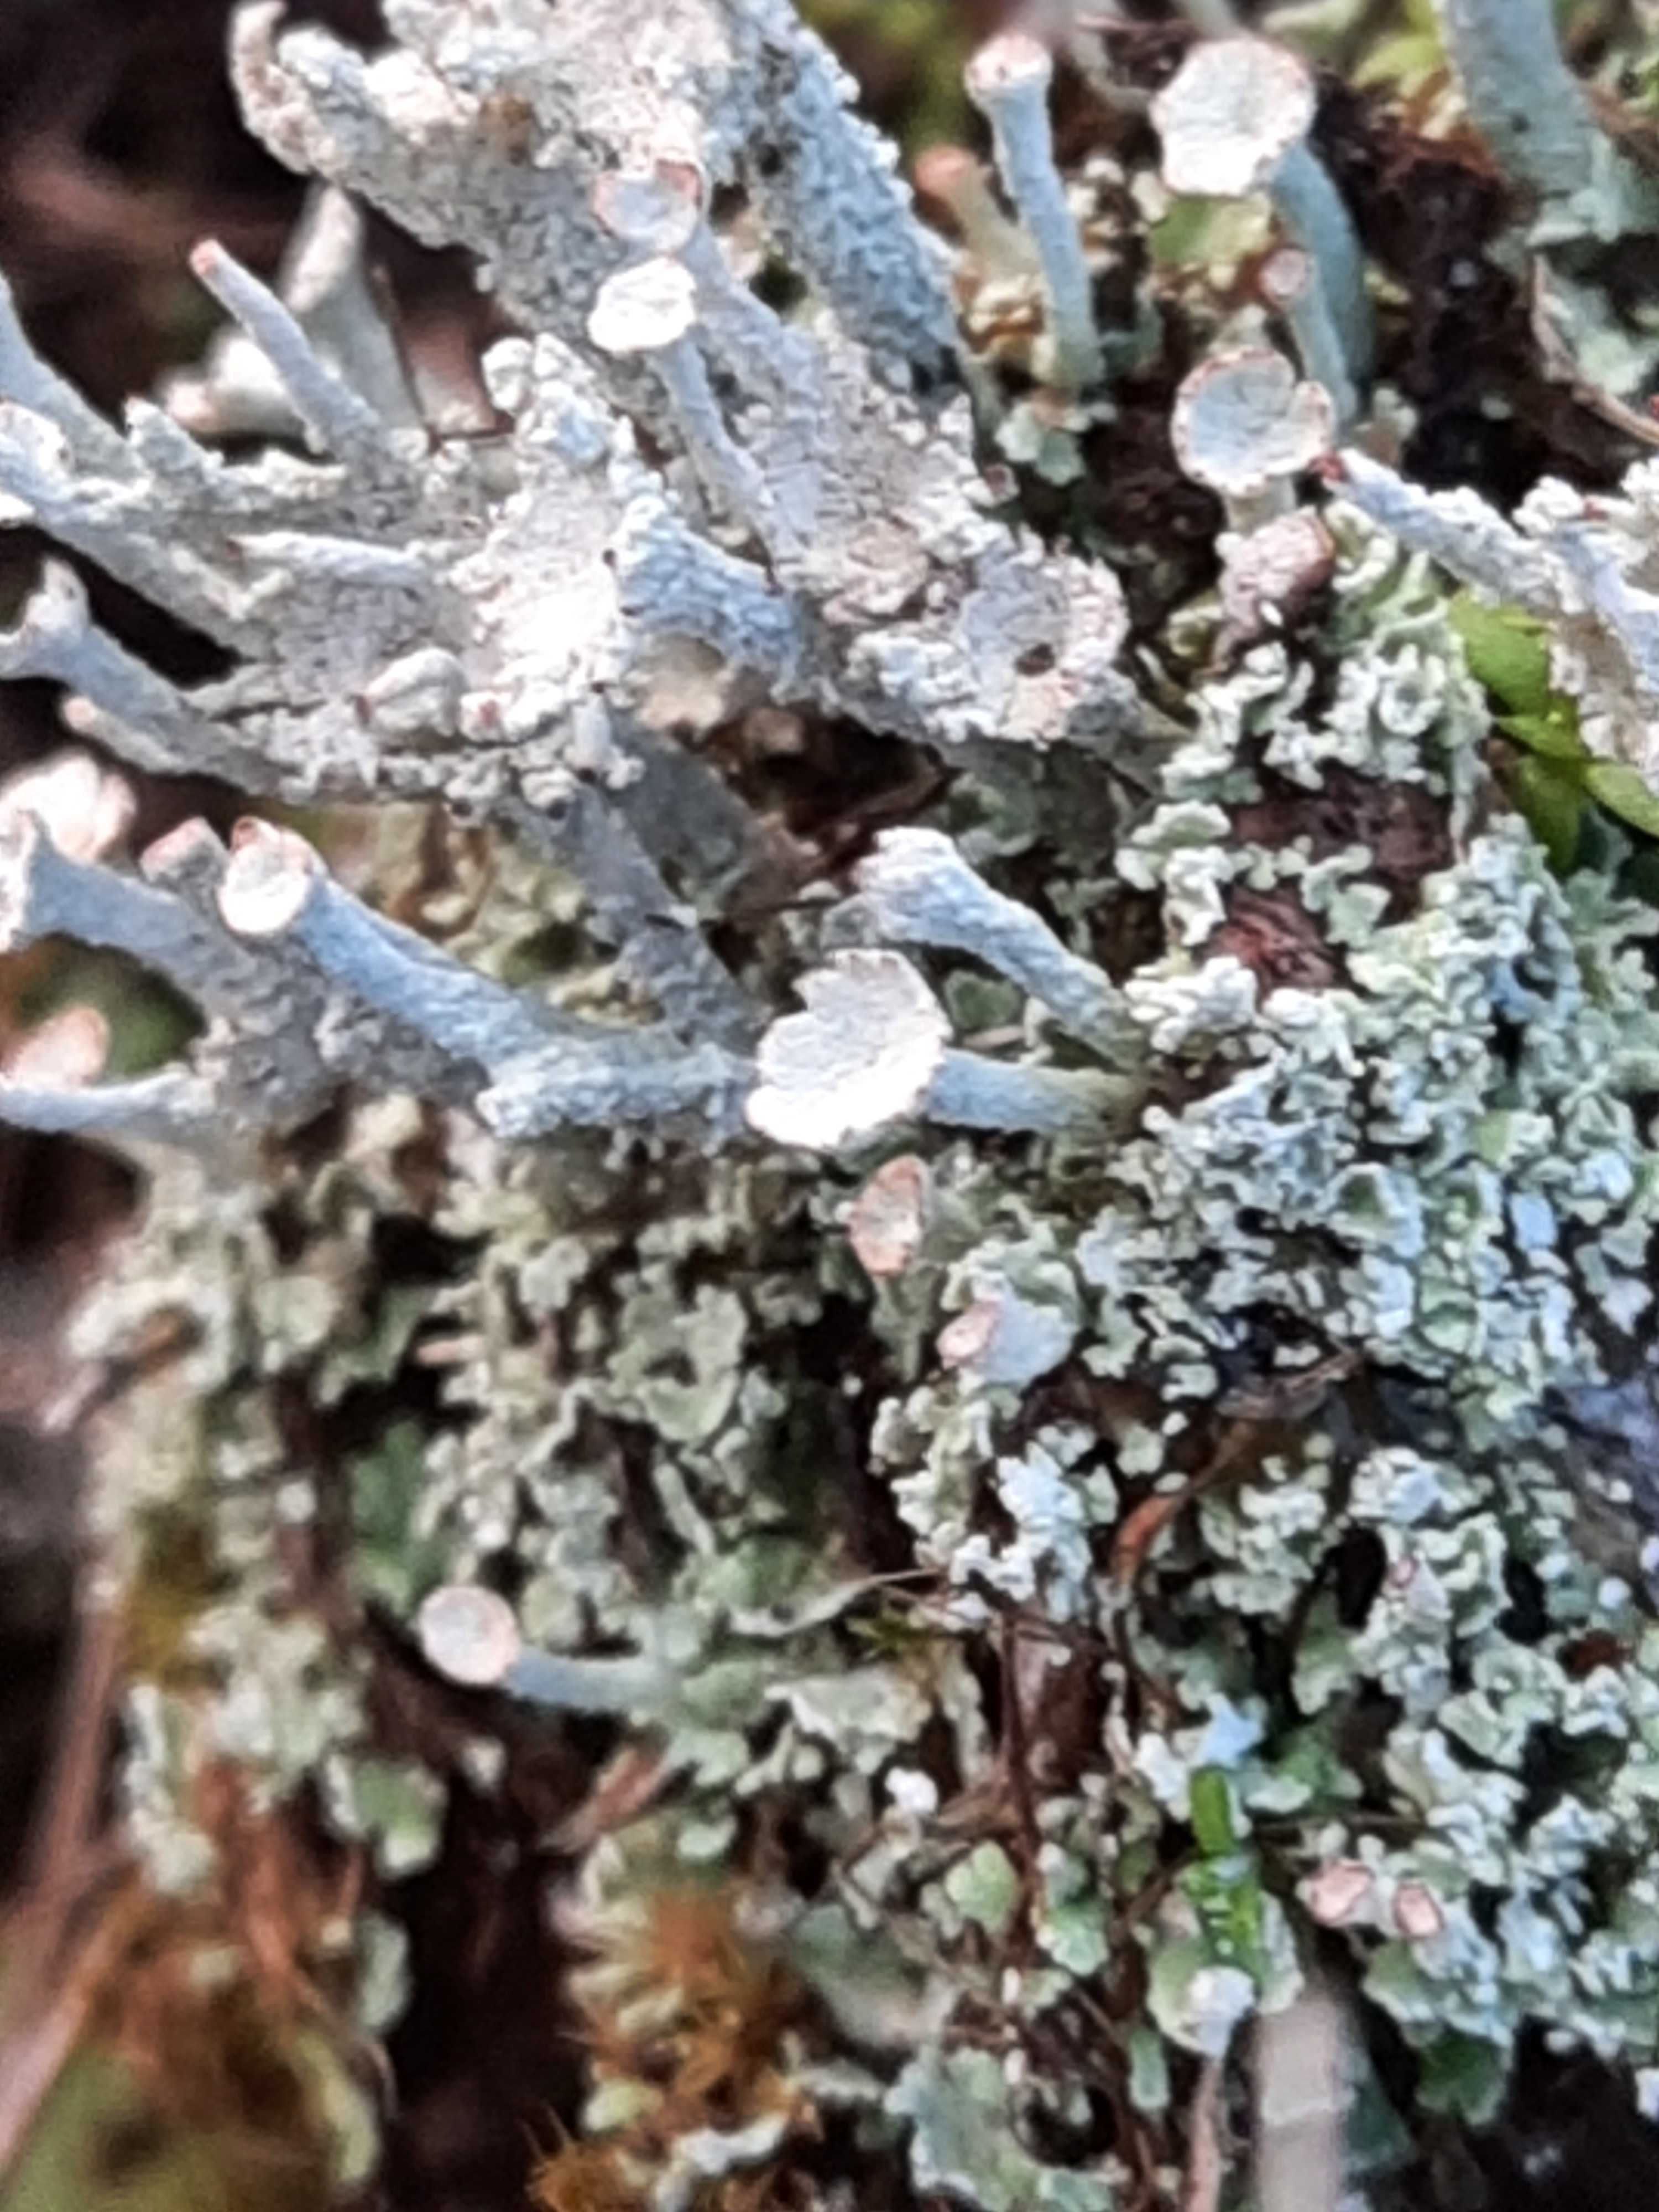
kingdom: Fungi
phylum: Ascomycota
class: Lecanoromycetes
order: Lecanorales
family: Cladoniaceae
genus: Cladonia
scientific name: Cladonia
